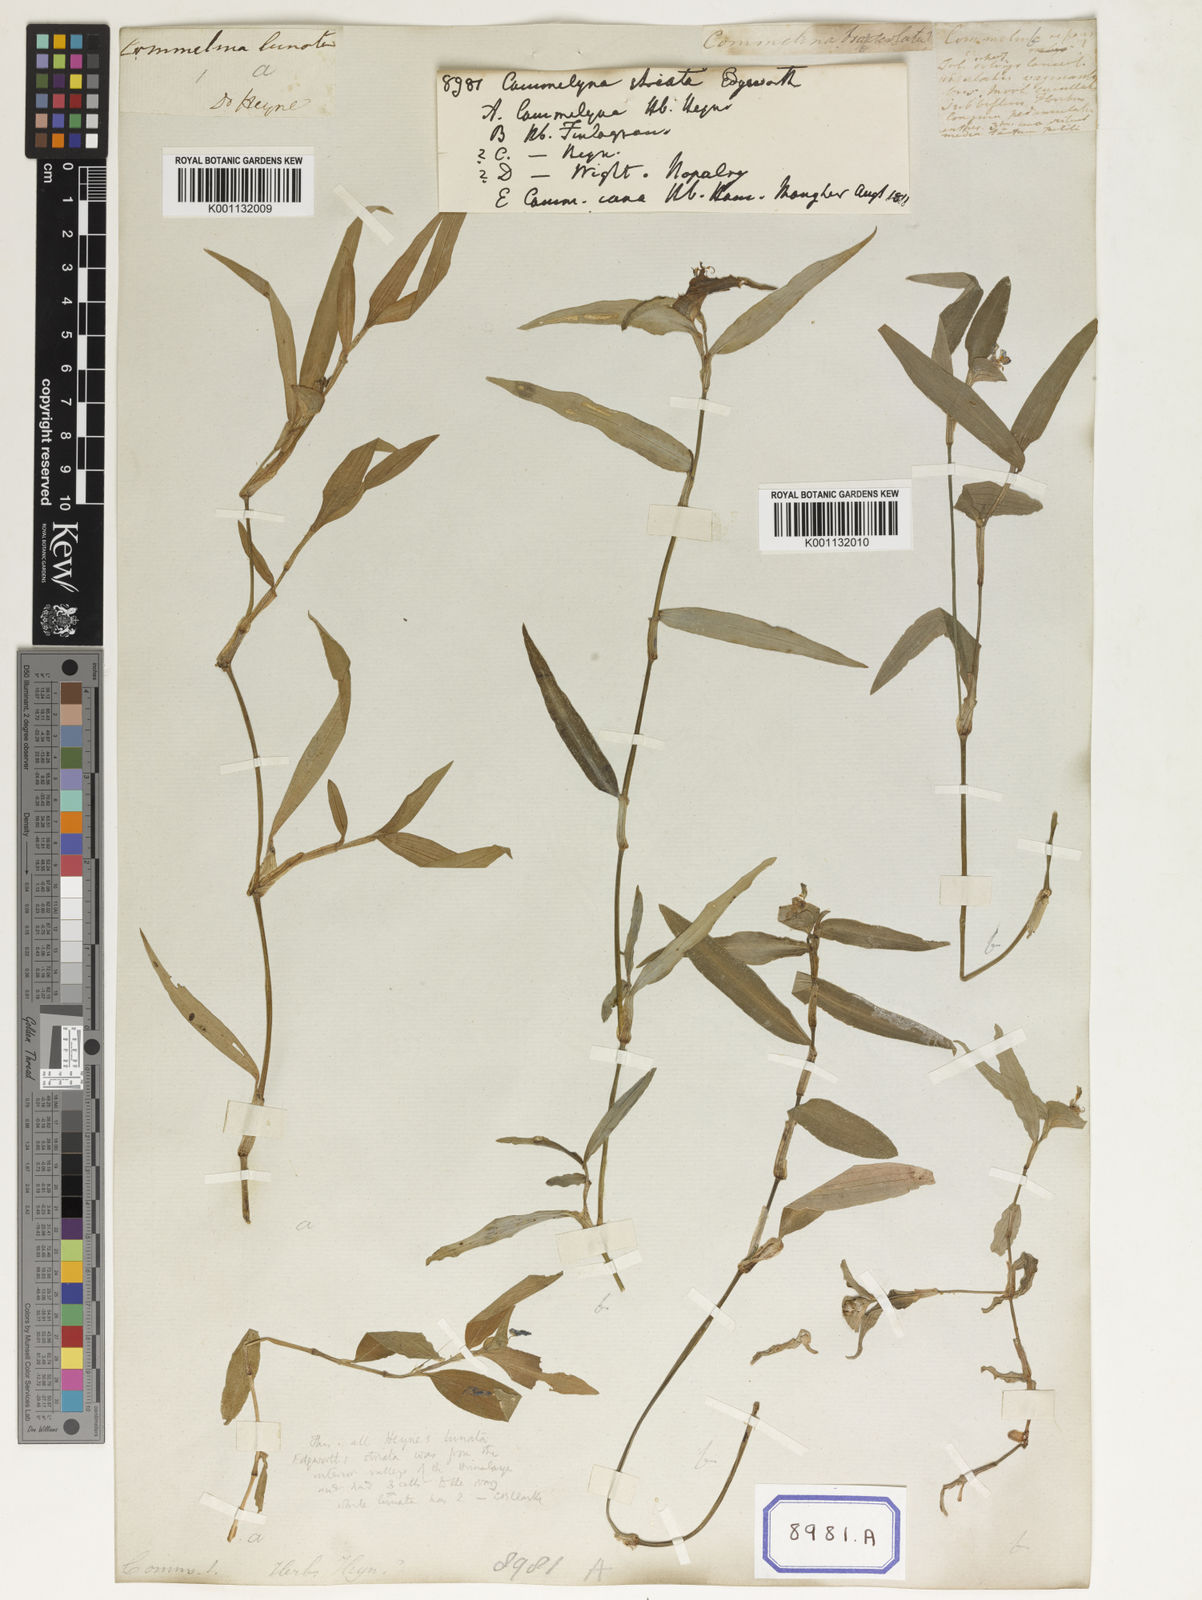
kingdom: Plantae
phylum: Tracheophyta
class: Liliopsida
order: Commelinales
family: Commelinaceae
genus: Commelina
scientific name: Commelina undulata
